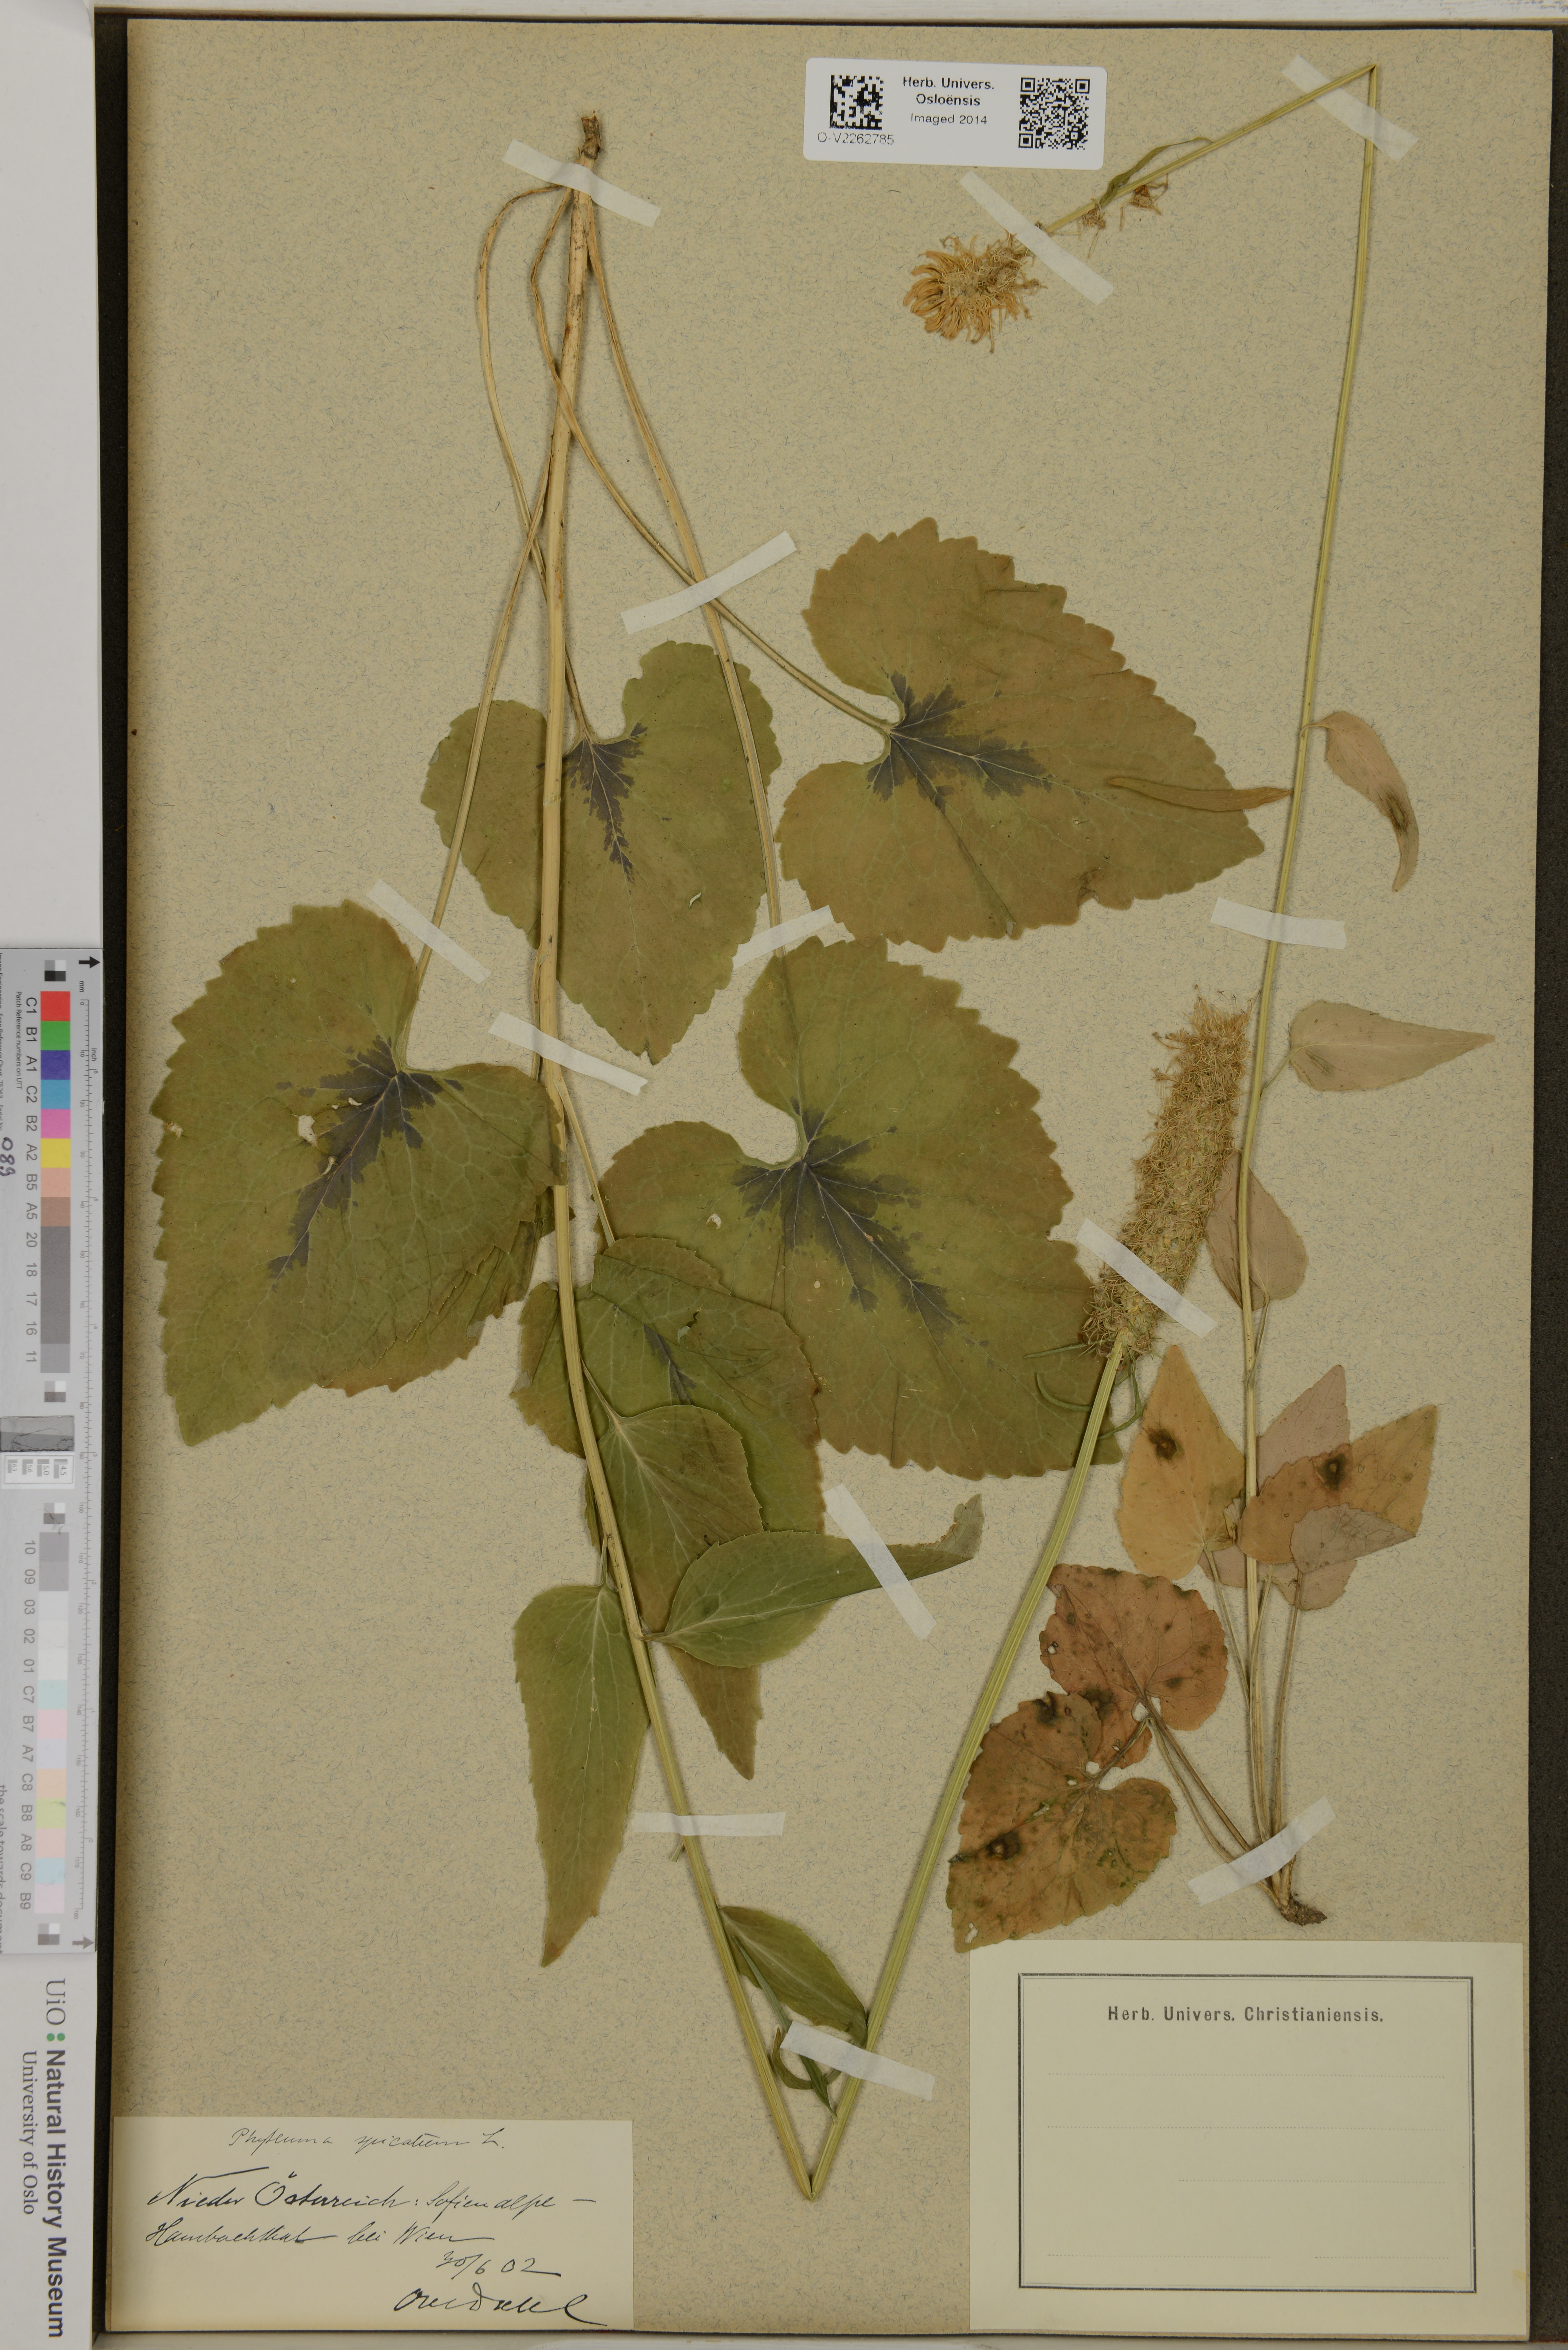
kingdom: Plantae
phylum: Tracheophyta
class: Magnoliopsida
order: Asterales
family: Campanulaceae
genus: Phyteuma
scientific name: Phyteuma spicatum
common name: Spiked rampion
